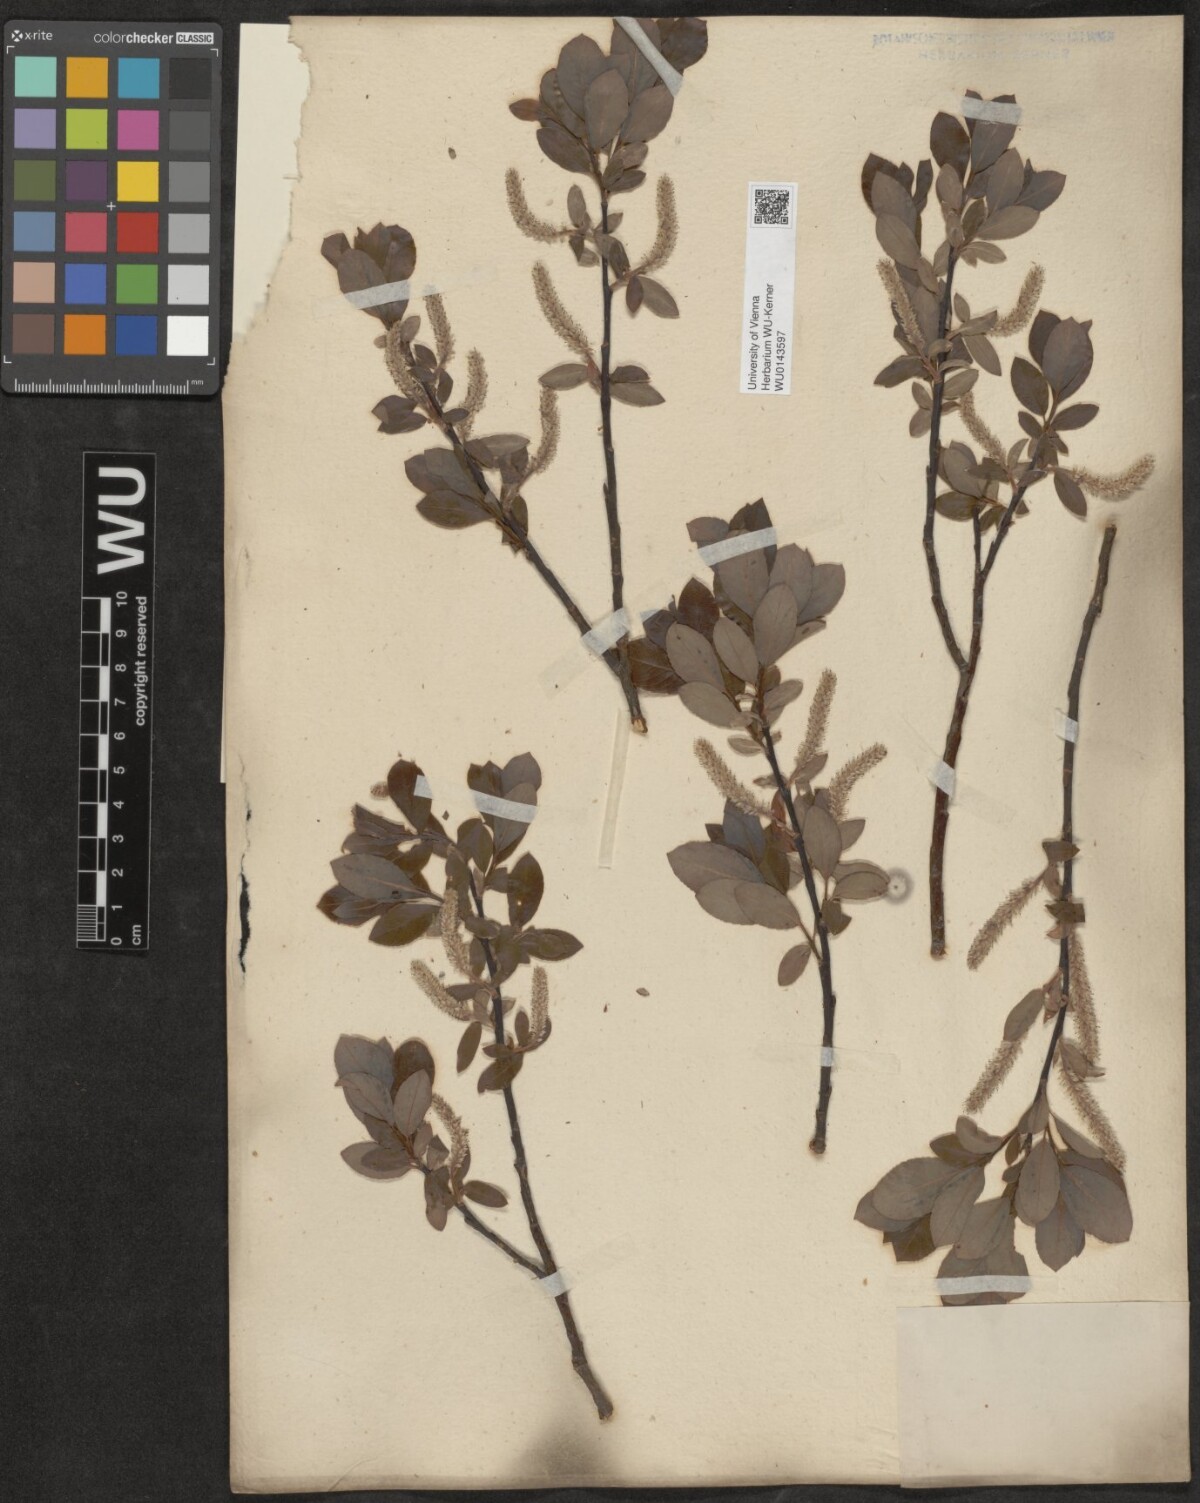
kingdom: Plantae
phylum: Tracheophyta
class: Magnoliopsida
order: Malpighiales
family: Salicaceae
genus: Salix
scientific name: Salix waldsteiniana
